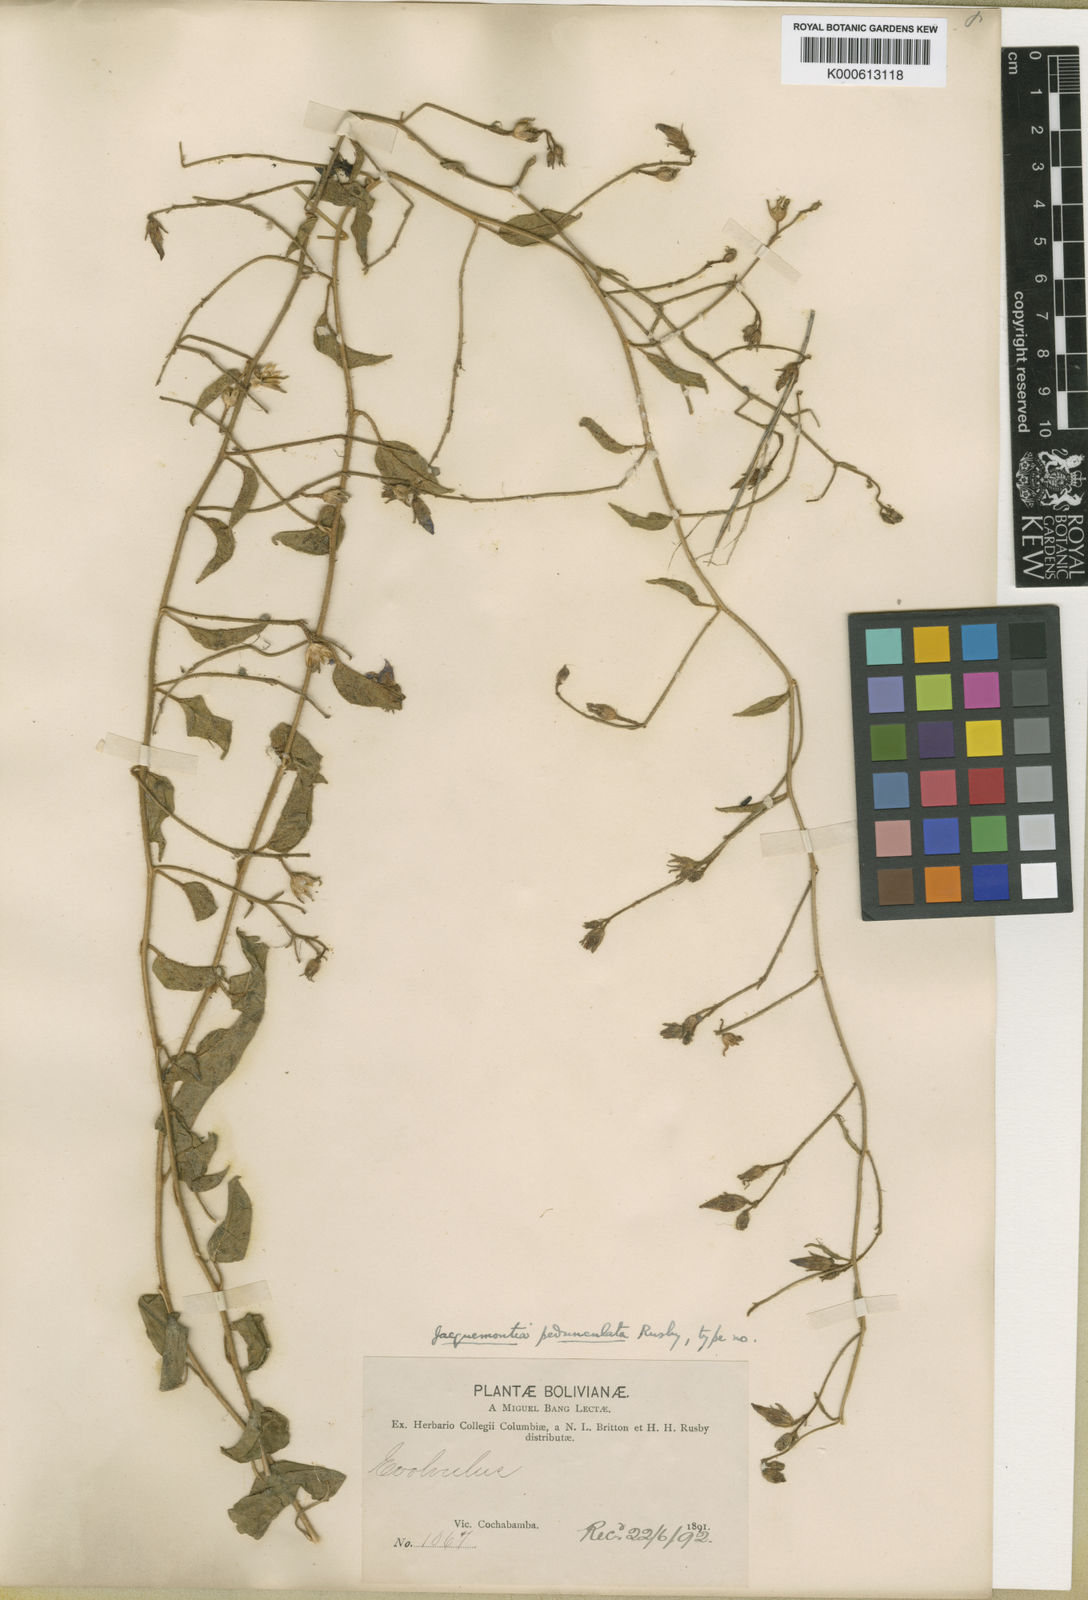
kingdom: Plantae
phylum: Tracheophyta
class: Magnoliopsida
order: Solanales
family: Convolvulaceae
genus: Jacquemontia
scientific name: Jacquemontia agrestis
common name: Midnightblue clustervine
